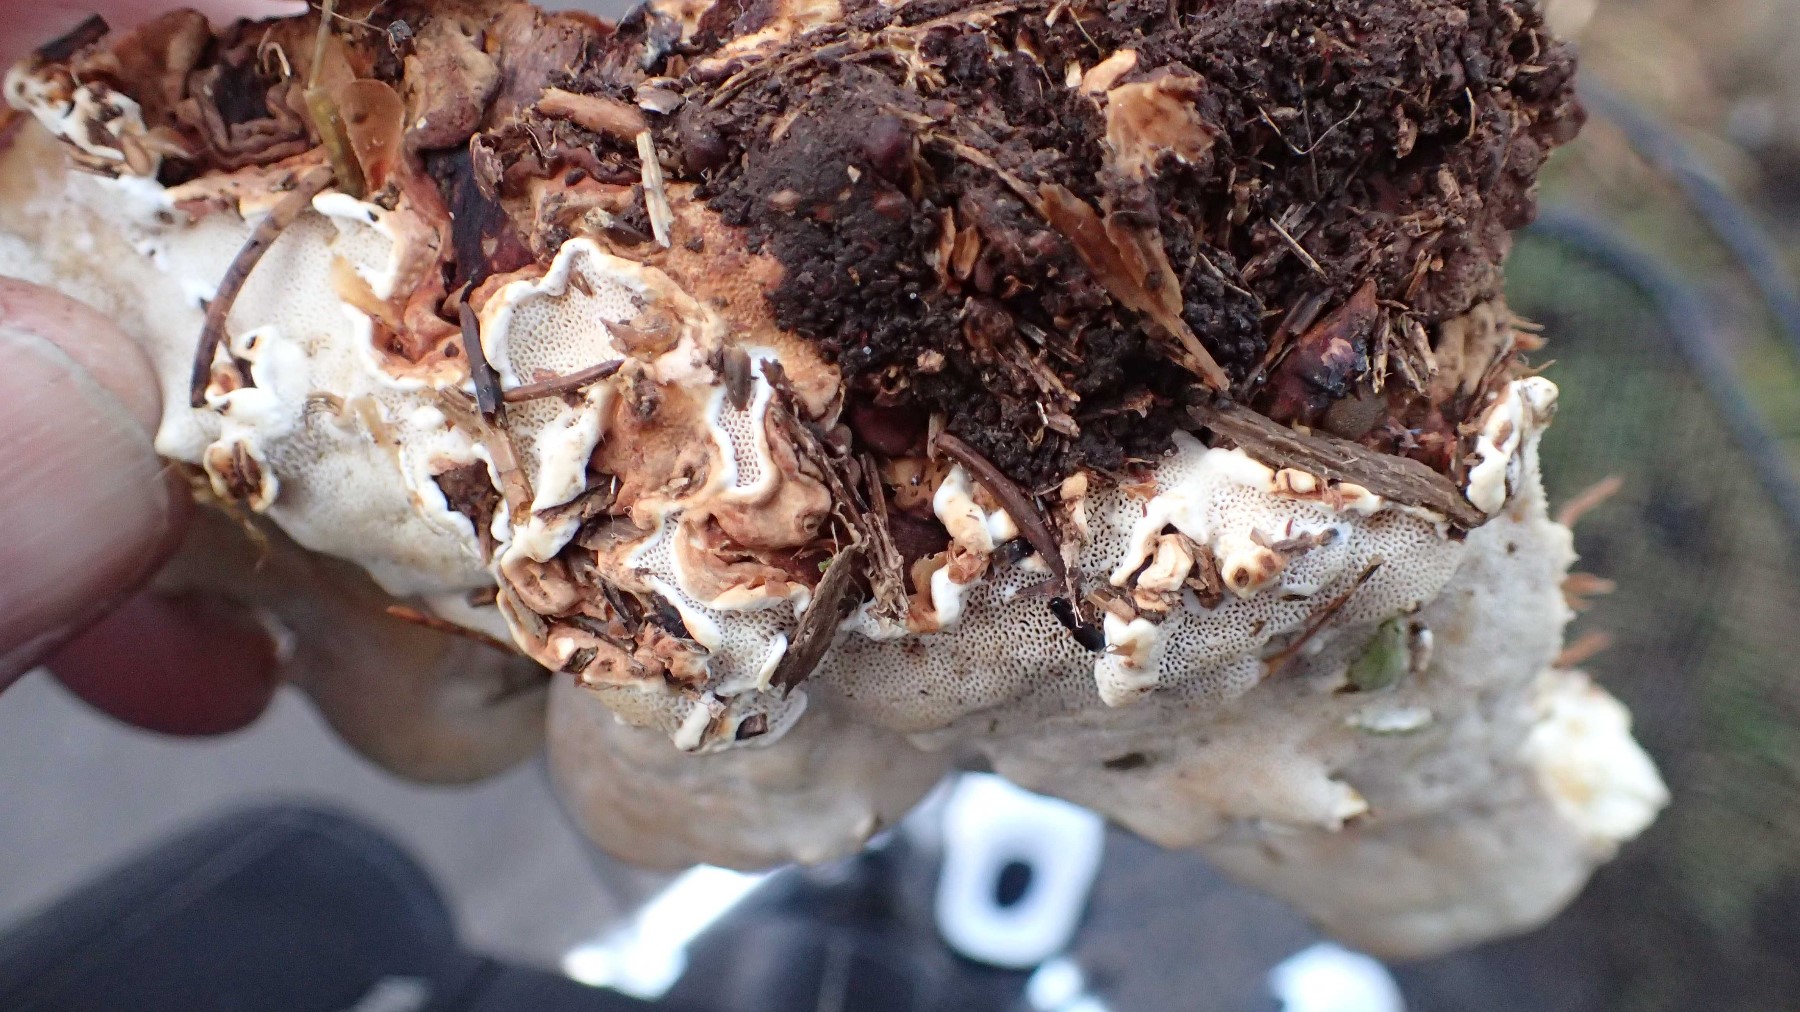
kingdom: Fungi
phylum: Basidiomycota
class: Agaricomycetes
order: Russulales
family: Bondarzewiaceae
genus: Heterobasidion
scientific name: Heterobasidion
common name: rodfordærver
